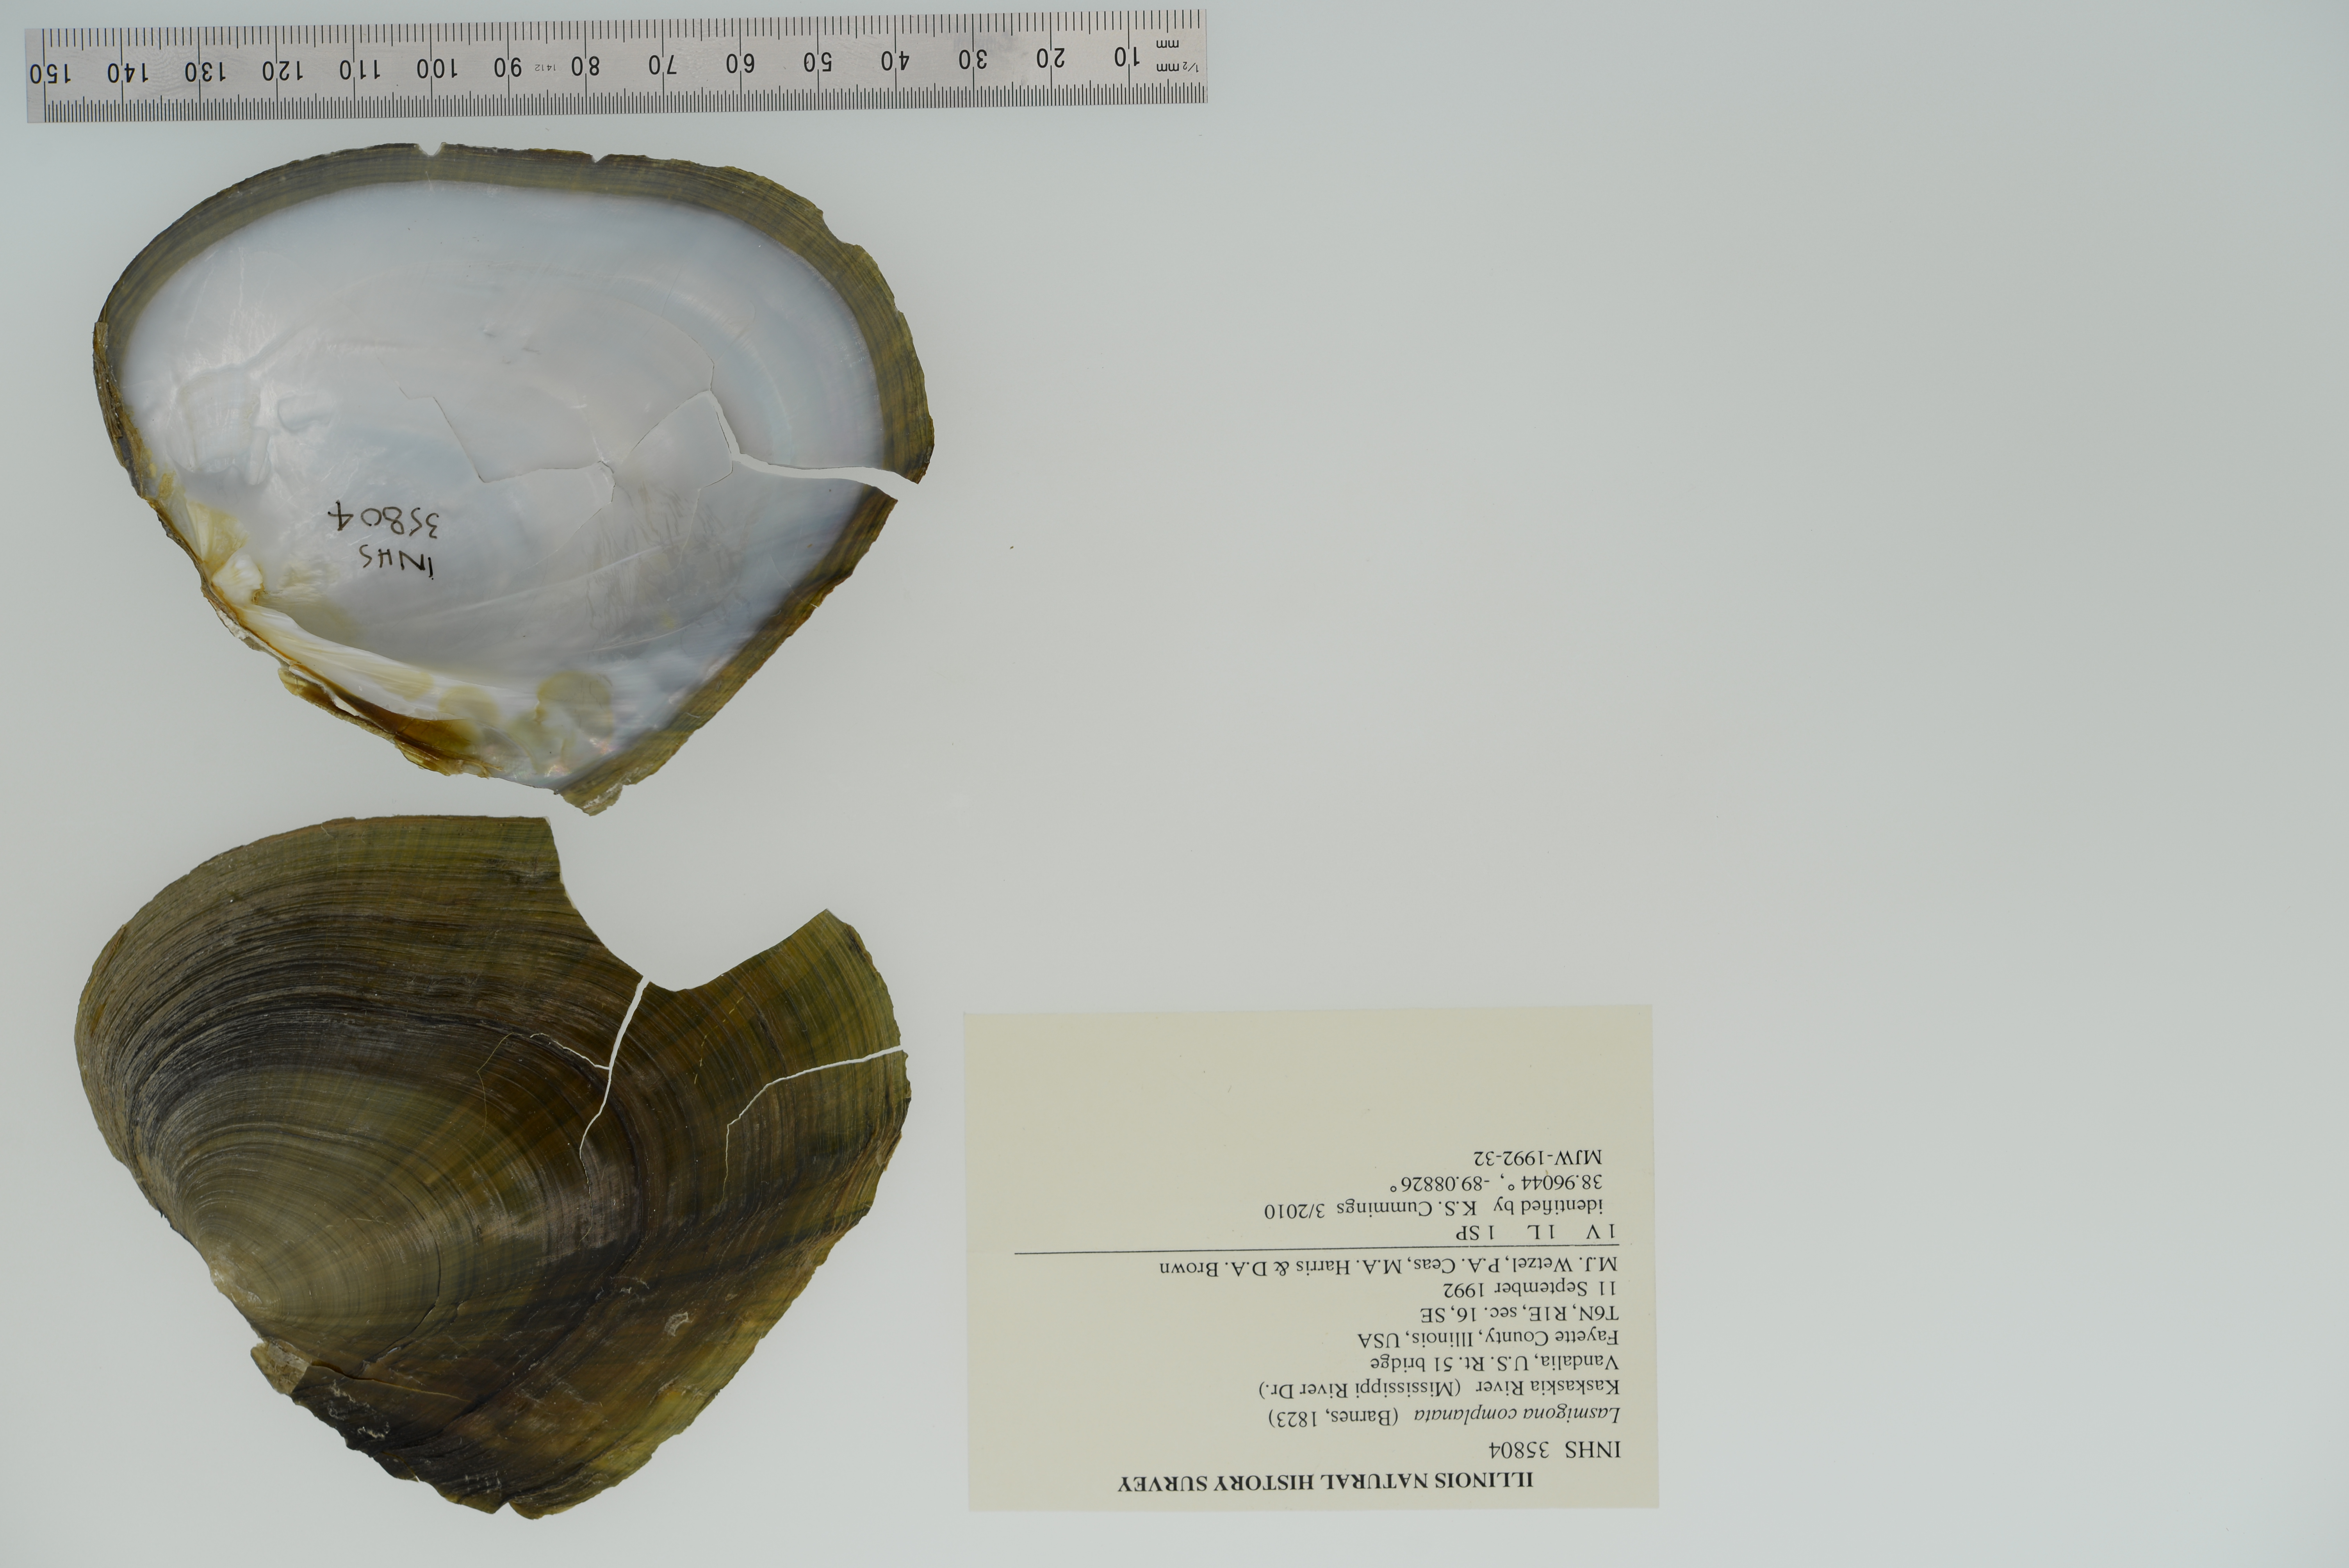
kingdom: Animalia
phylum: Mollusca
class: Bivalvia
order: Unionida
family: Unionidae
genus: Lasmigona
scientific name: Lasmigona complanata
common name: White heelsplitter
